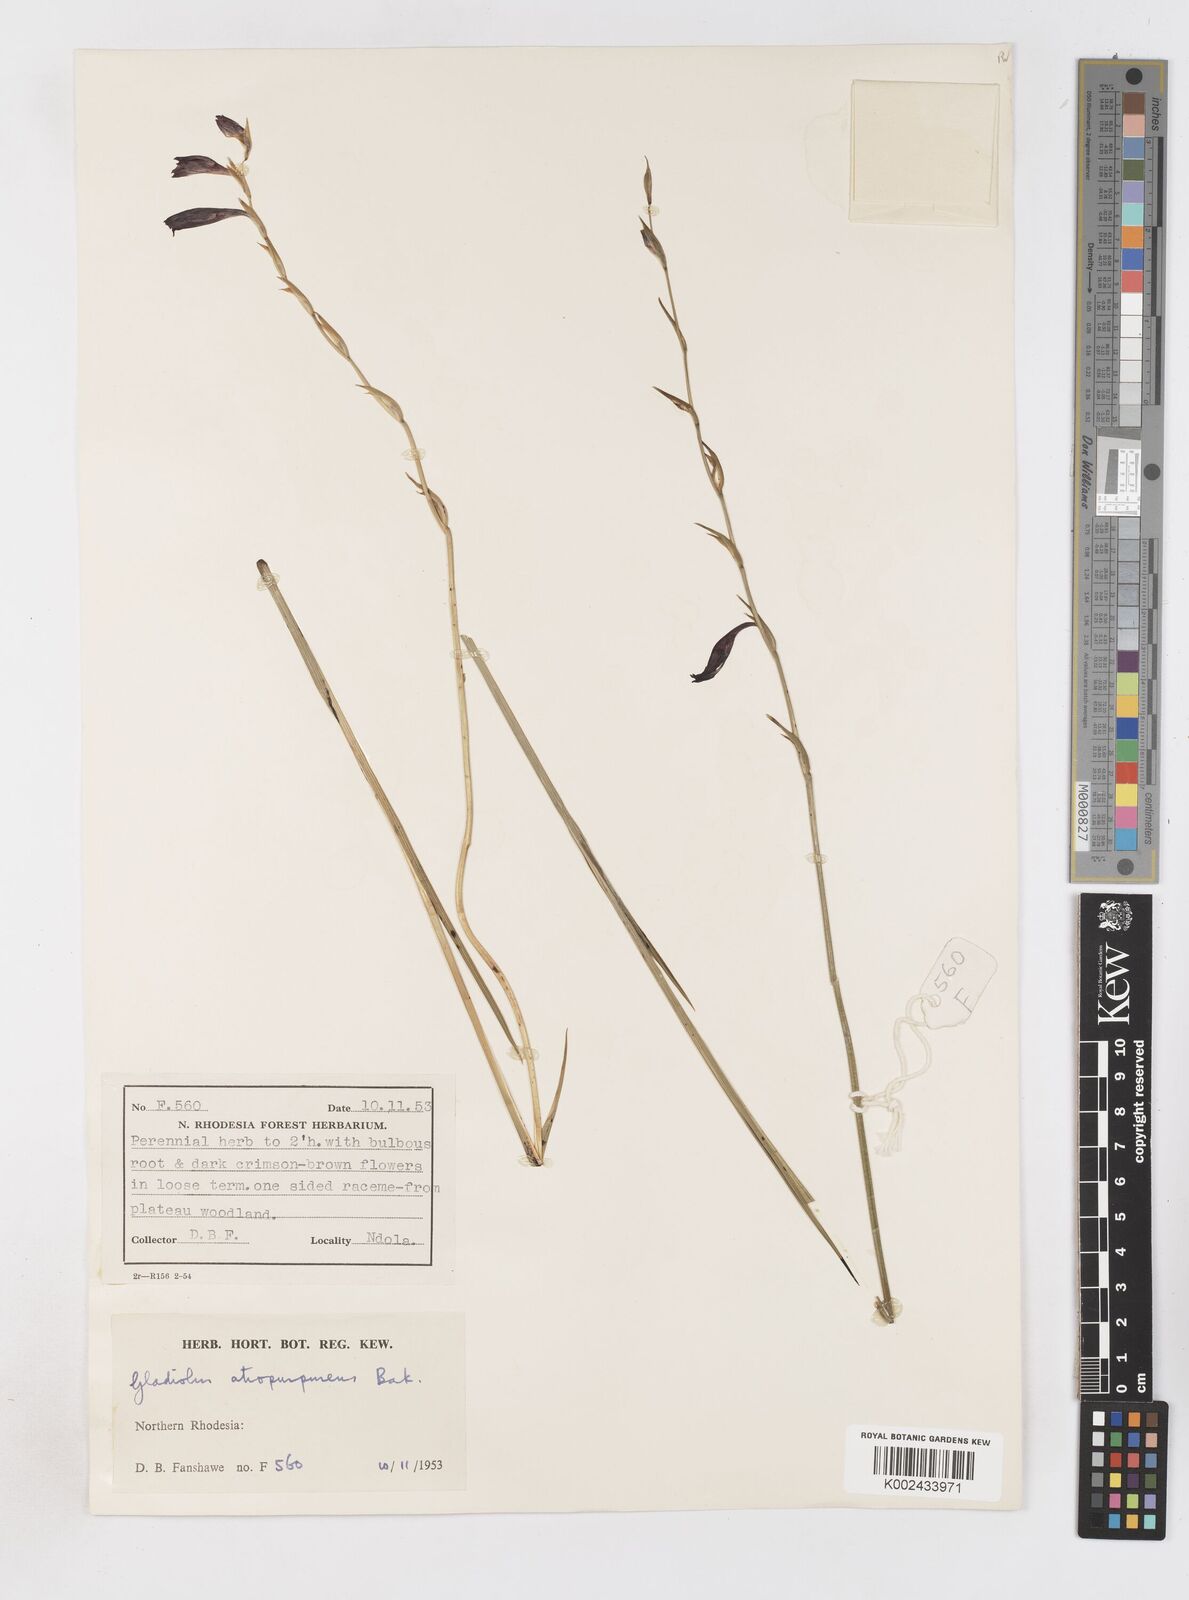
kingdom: Plantae
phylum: Tracheophyta
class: Liliopsida
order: Asparagales
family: Iridaceae
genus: Gladiolus
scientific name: Gladiolus atropurpureus
